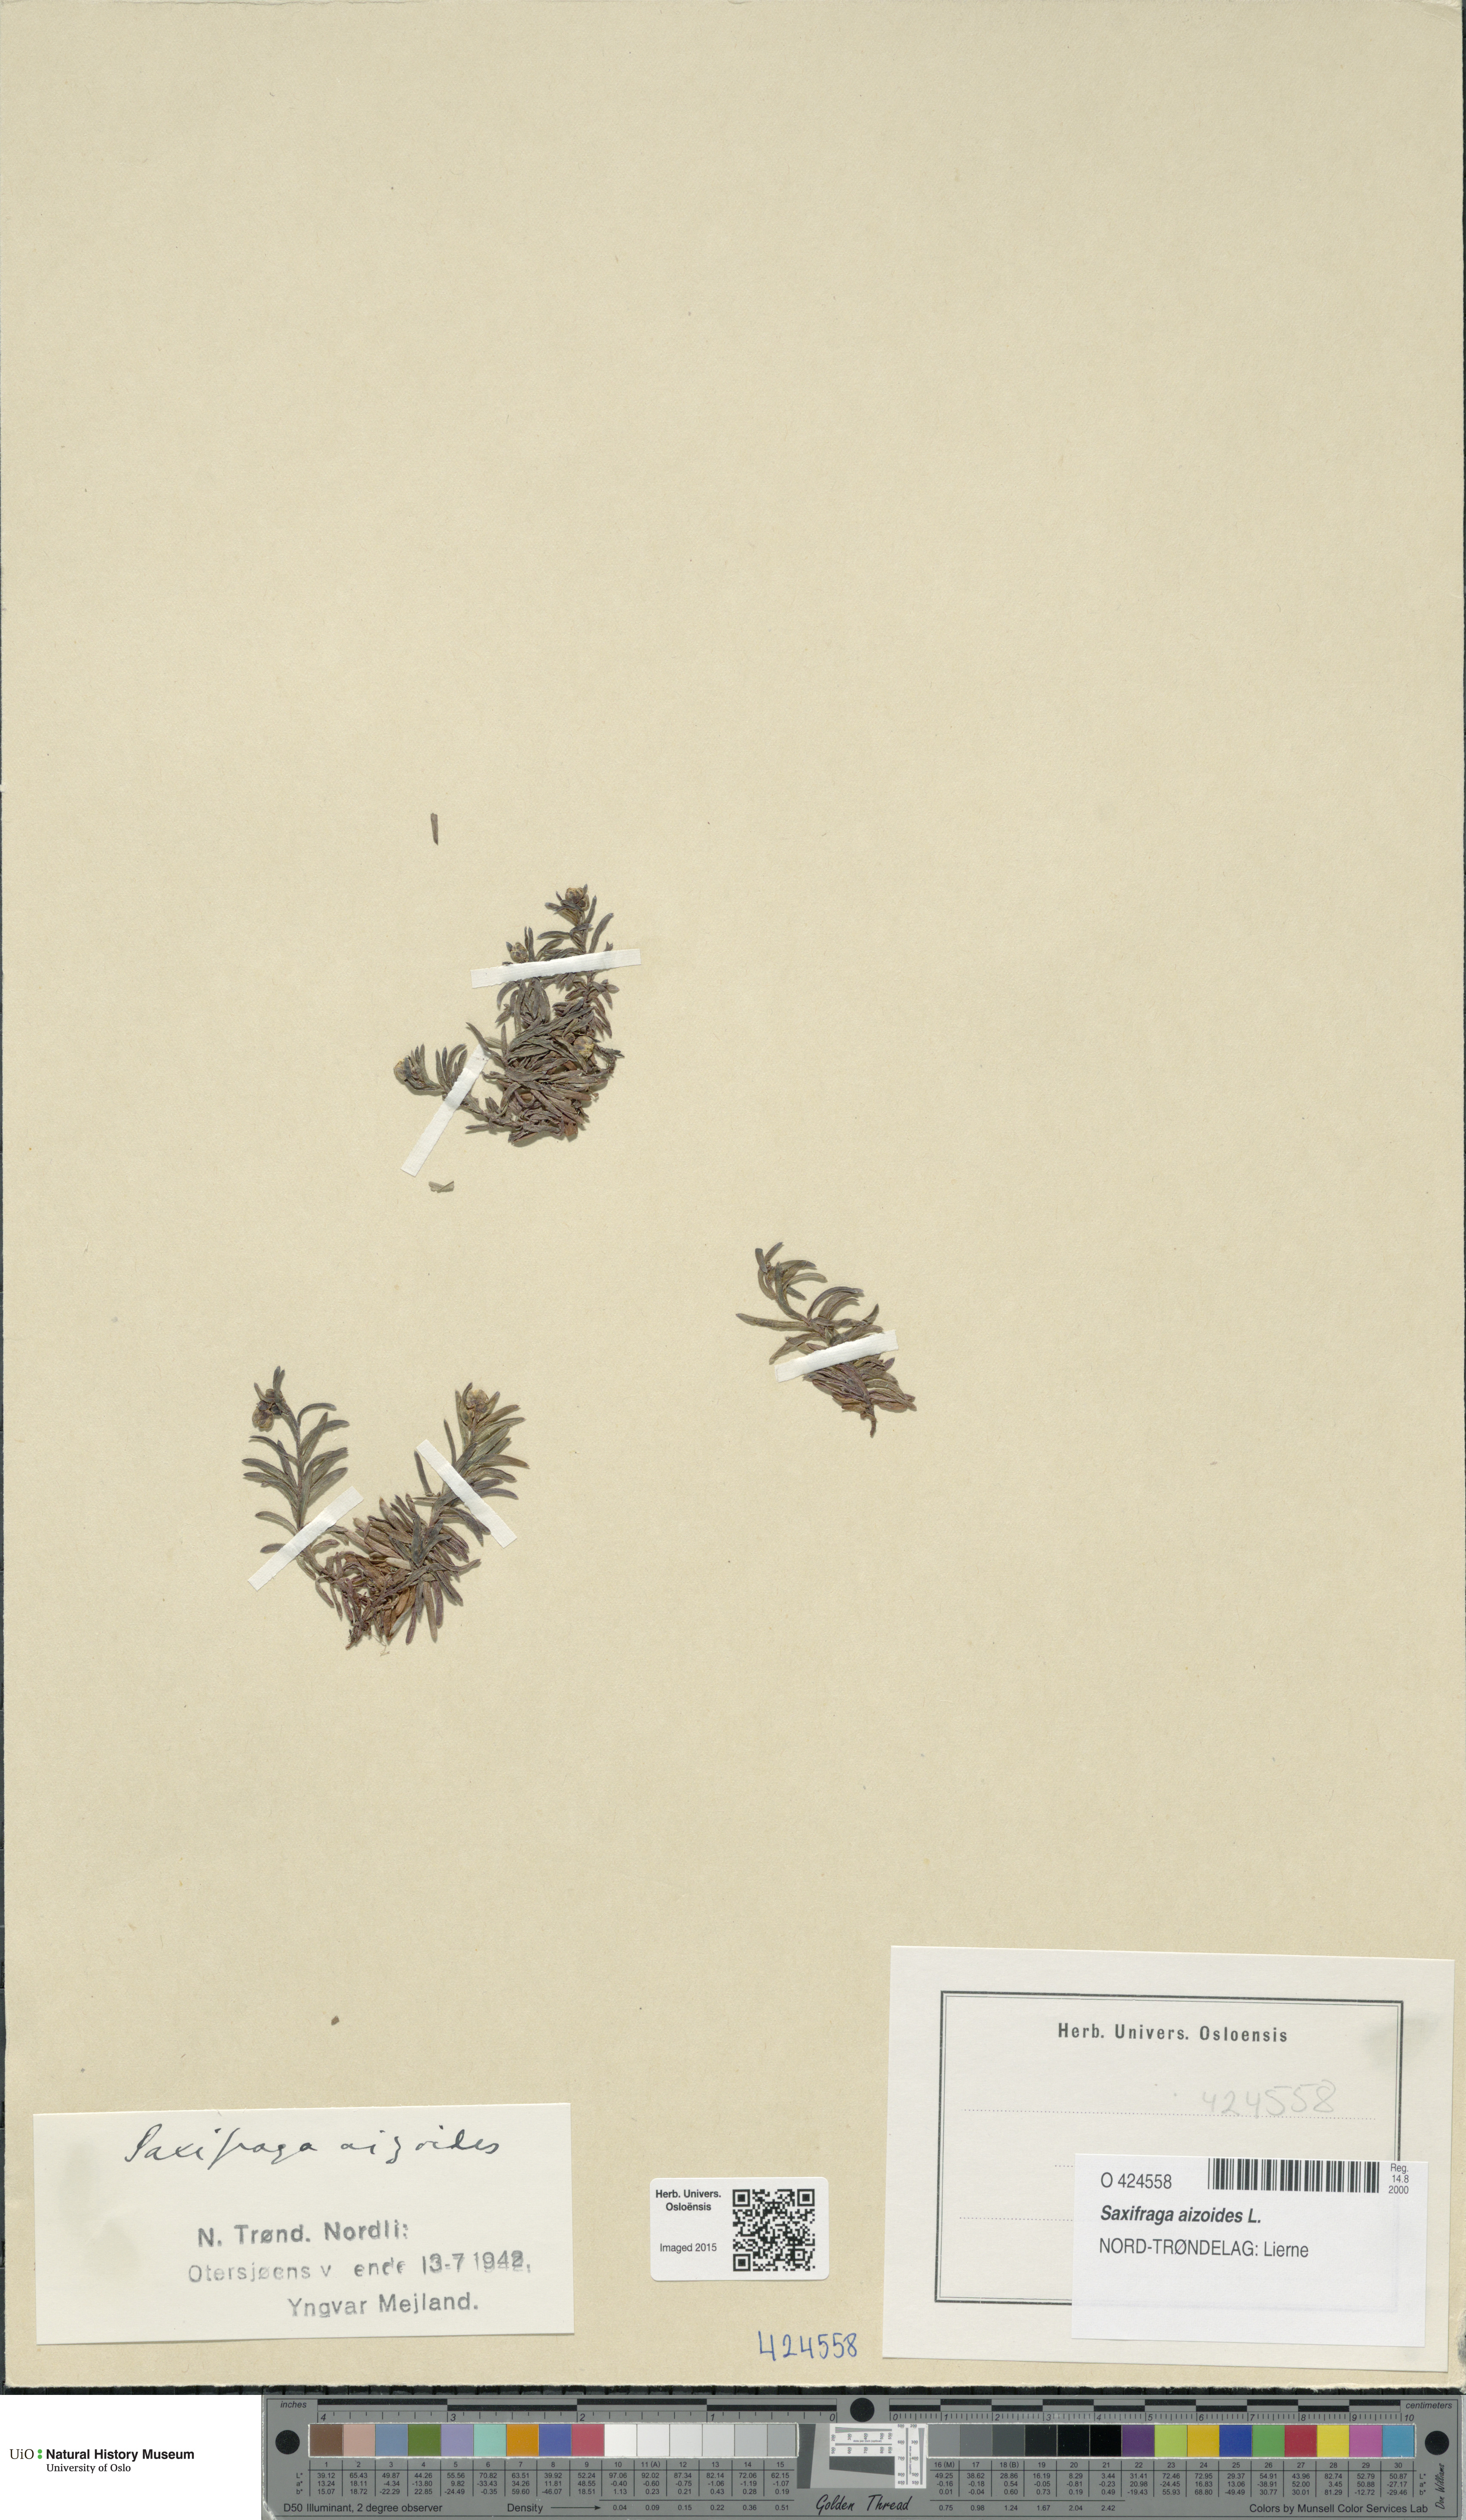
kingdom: Plantae
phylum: Tracheophyta
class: Magnoliopsida
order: Saxifragales
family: Saxifragaceae
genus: Saxifraga
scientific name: Saxifraga aizoides
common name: Yellow mountain saxifrage
